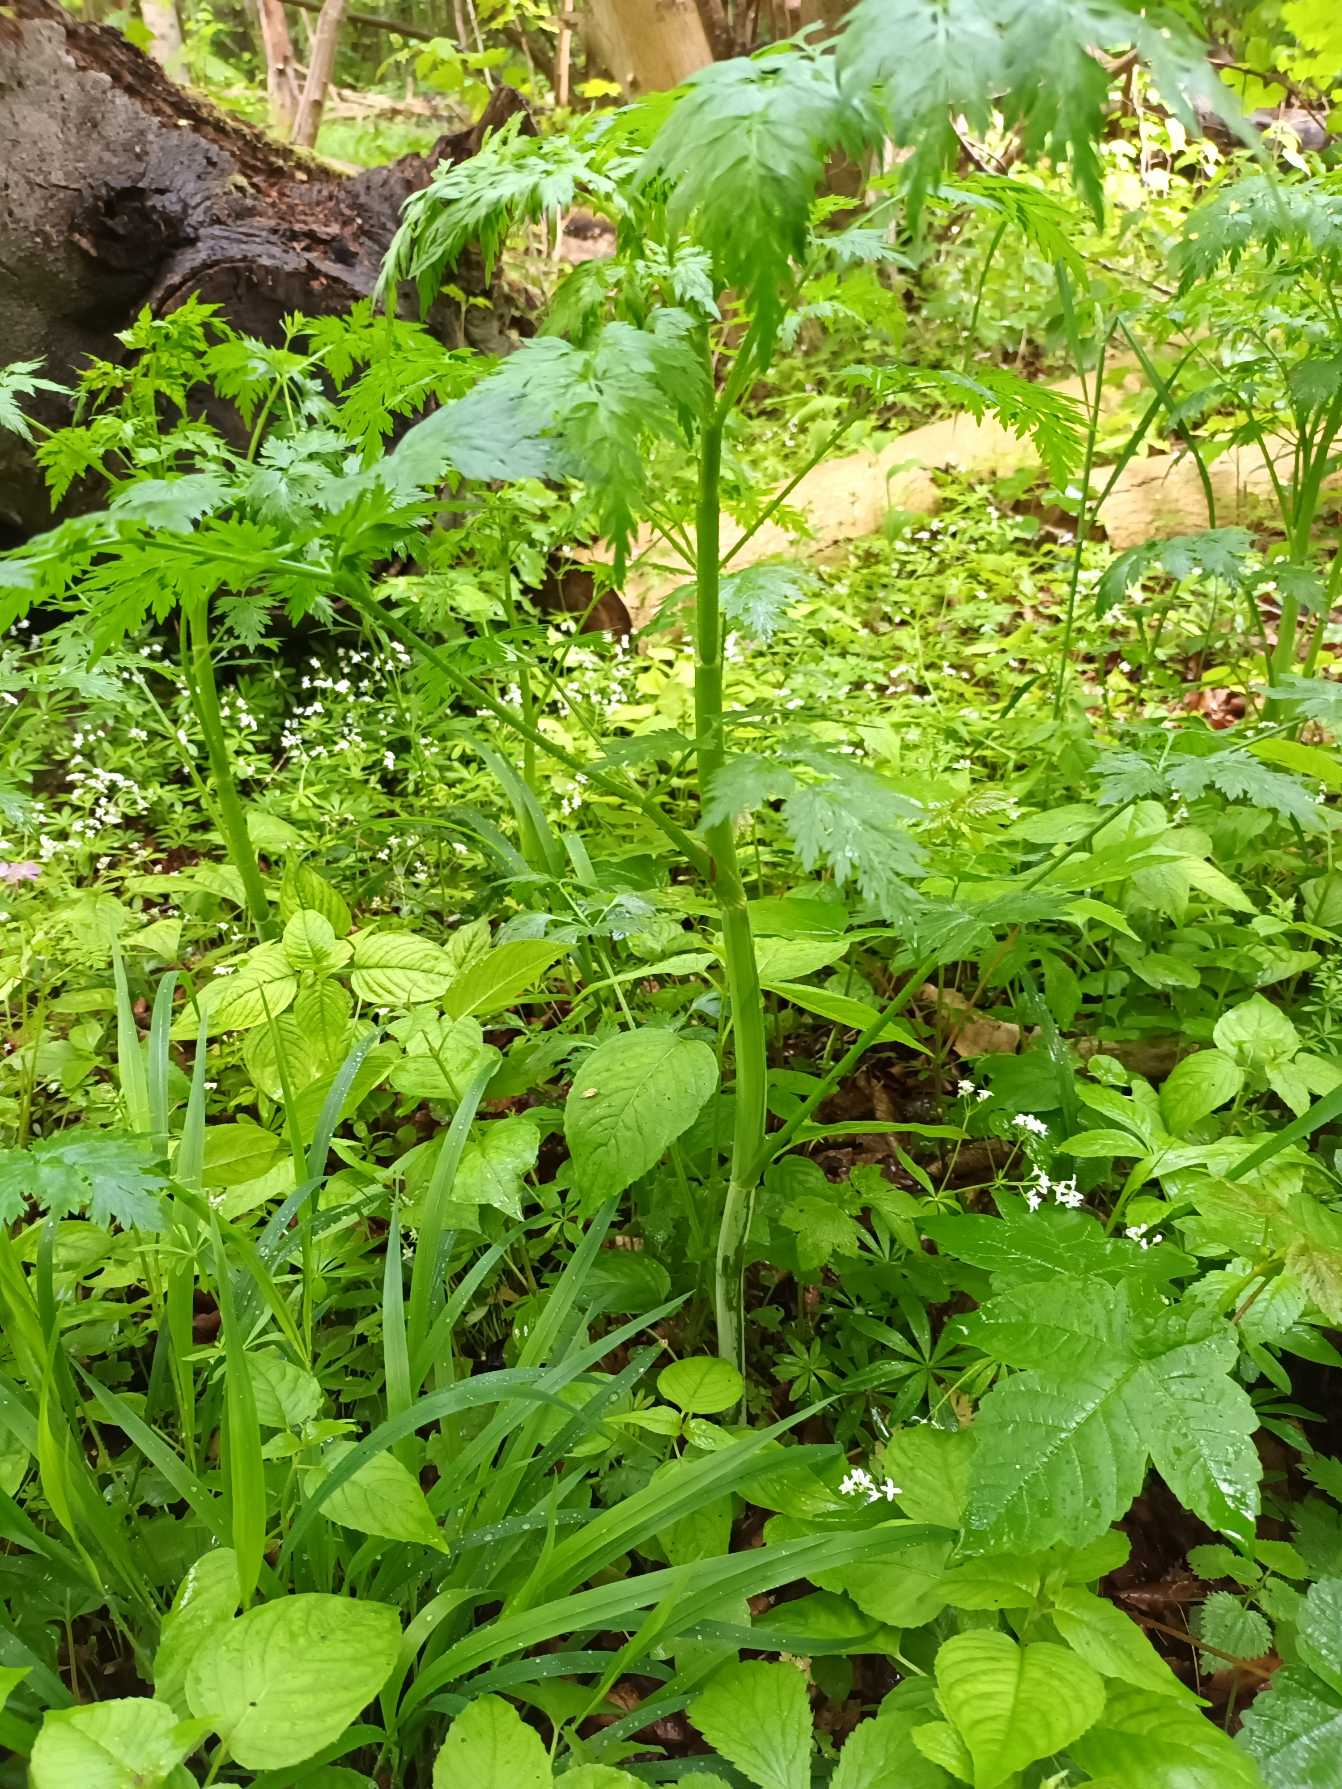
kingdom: Plantae
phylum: Tracheophyta
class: Magnoliopsida
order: Apiales
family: Apiaceae
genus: Aethusa
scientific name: Aethusa cynapium
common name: Stor hundepersille
